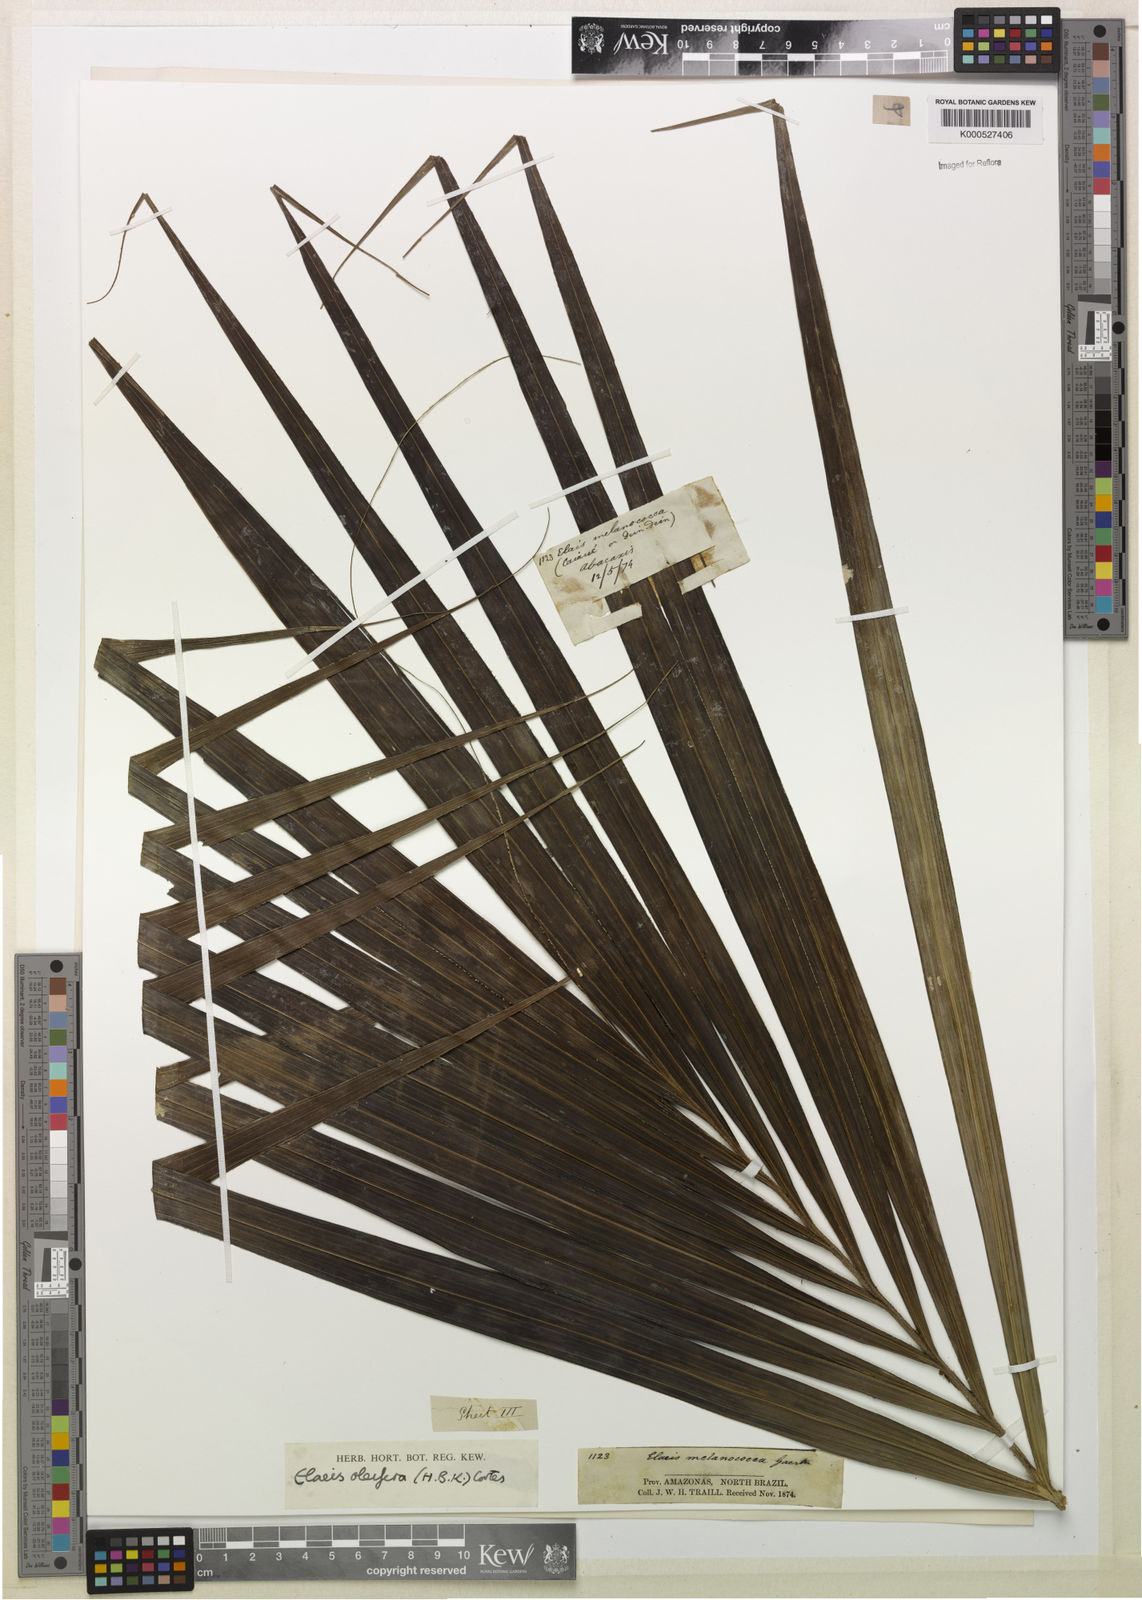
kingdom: Plantae
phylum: Tracheophyta
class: Liliopsida
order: Arecales
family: Arecaceae
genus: Elaeis
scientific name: Elaeis oleifera
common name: American oil palm
